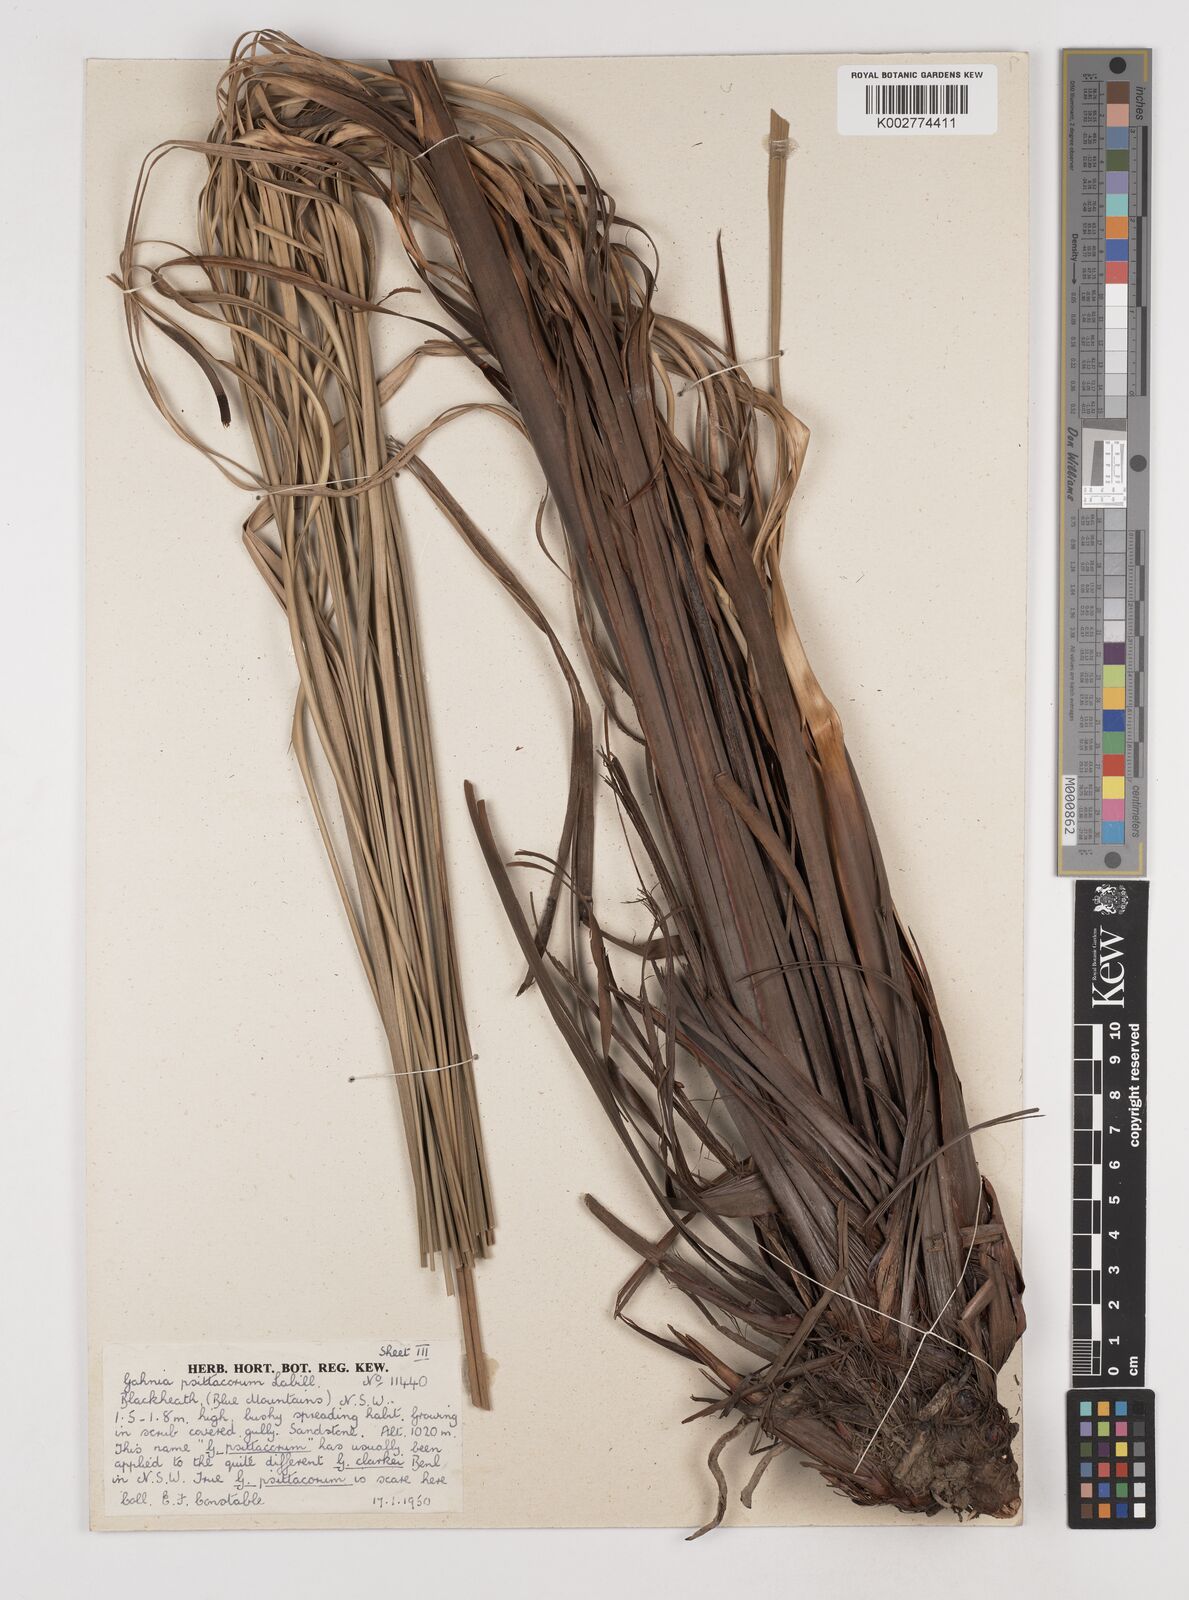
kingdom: Plantae
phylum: Tracheophyta
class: Liliopsida
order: Poales
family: Cyperaceae
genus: Gahnia
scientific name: Gahnia grandis
